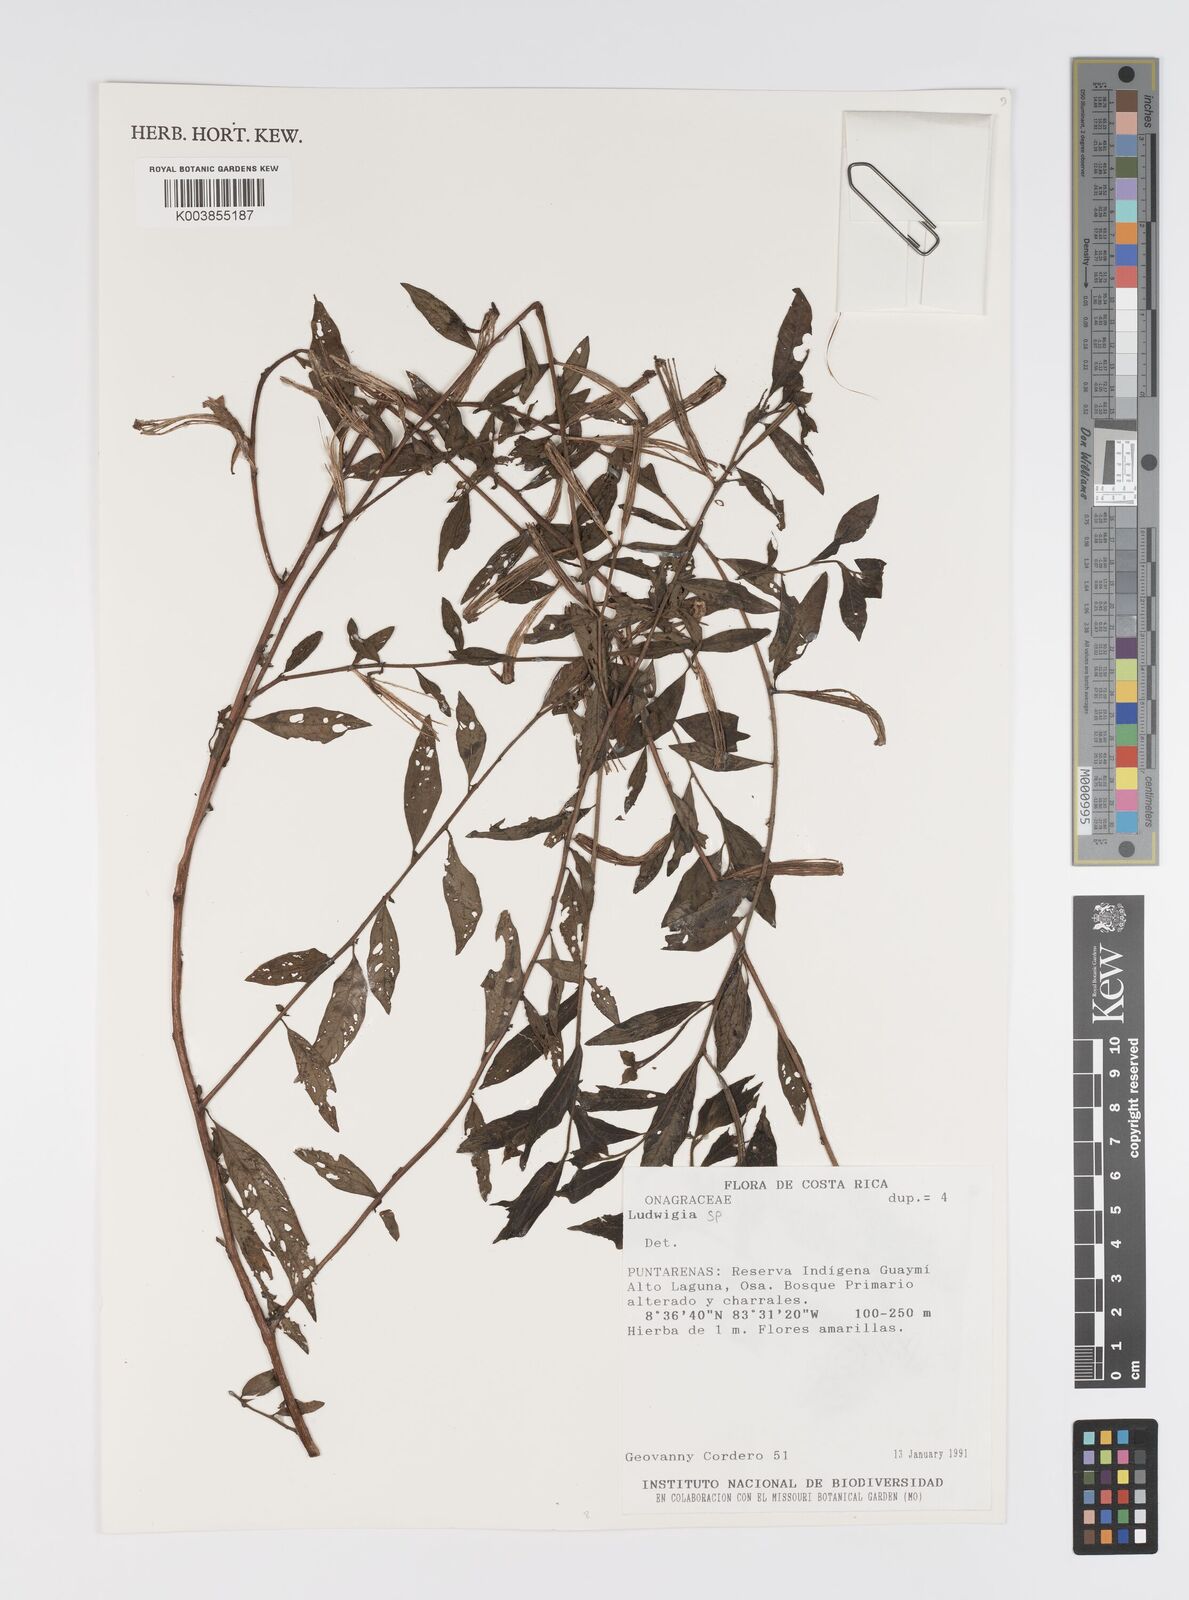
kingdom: Plantae
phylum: Tracheophyta
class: Magnoliopsida
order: Myrtales
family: Onagraceae
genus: Ludwigia
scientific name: Ludwigia
